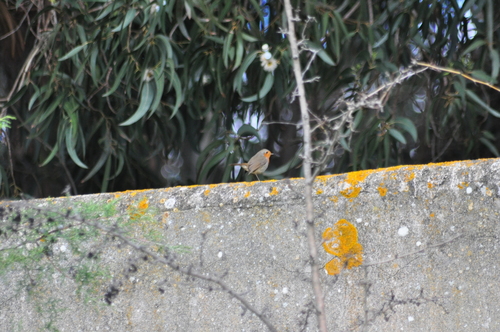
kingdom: Animalia
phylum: Chordata
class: Aves
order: Passeriformes
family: Muscicapidae
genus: Erithacus
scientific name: Erithacus rubecula
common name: European robin
